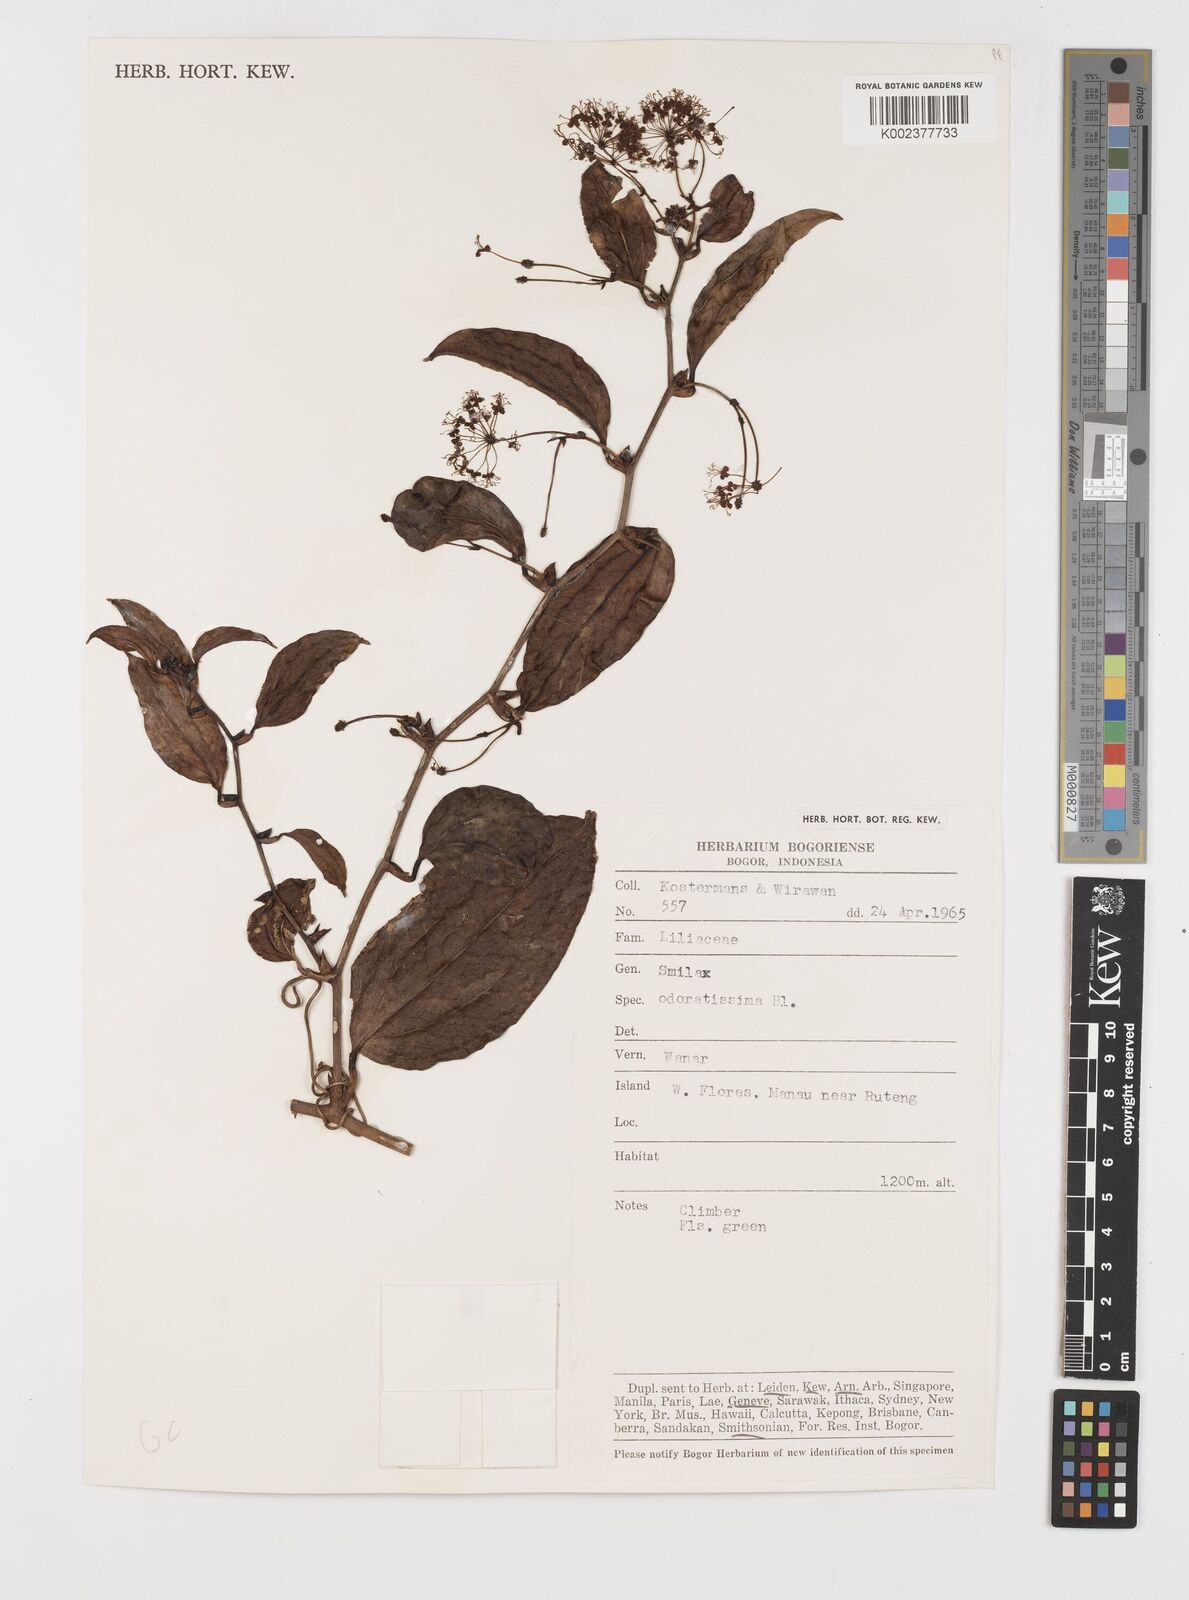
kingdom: Plantae
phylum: Tracheophyta
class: Liliopsida
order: Liliales
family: Smilacaceae
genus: Smilax
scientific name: Smilax odoratissima
